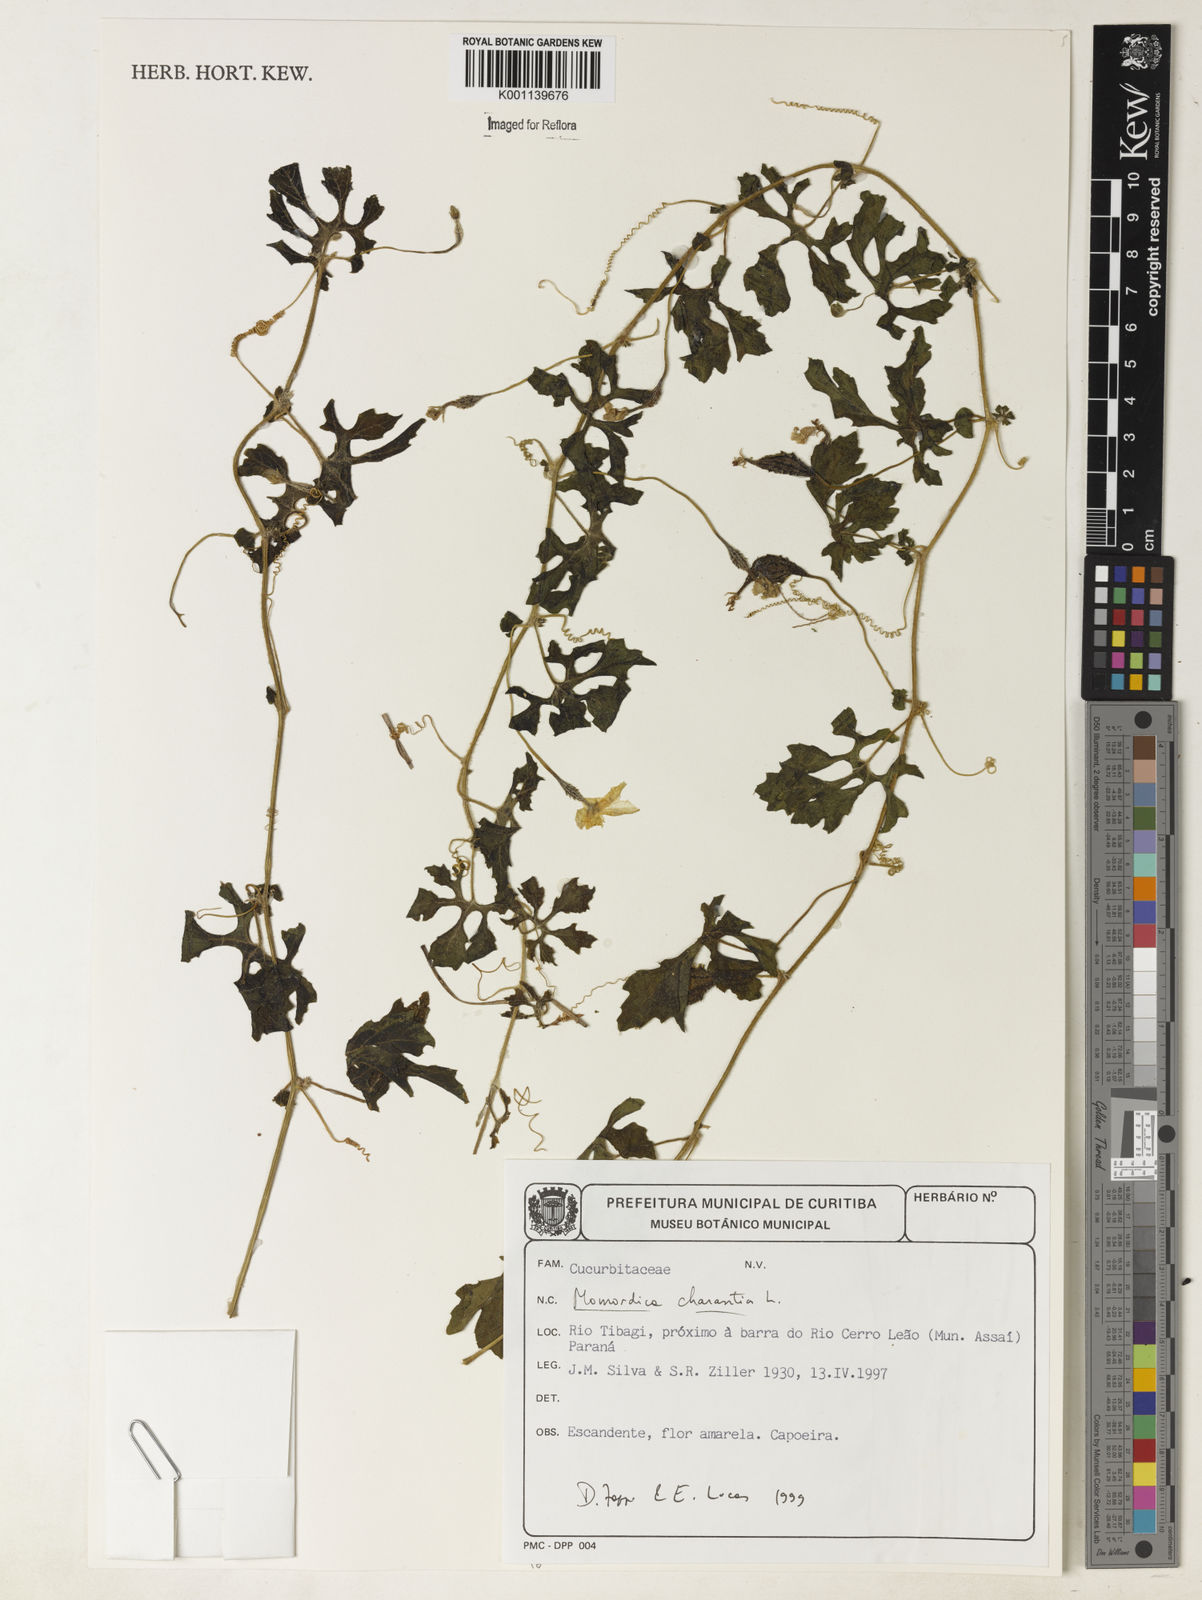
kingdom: Plantae
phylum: Tracheophyta
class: Magnoliopsida
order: Cucurbitales
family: Cucurbitaceae
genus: Momordica
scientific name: Momordica charantia
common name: Balsampear
